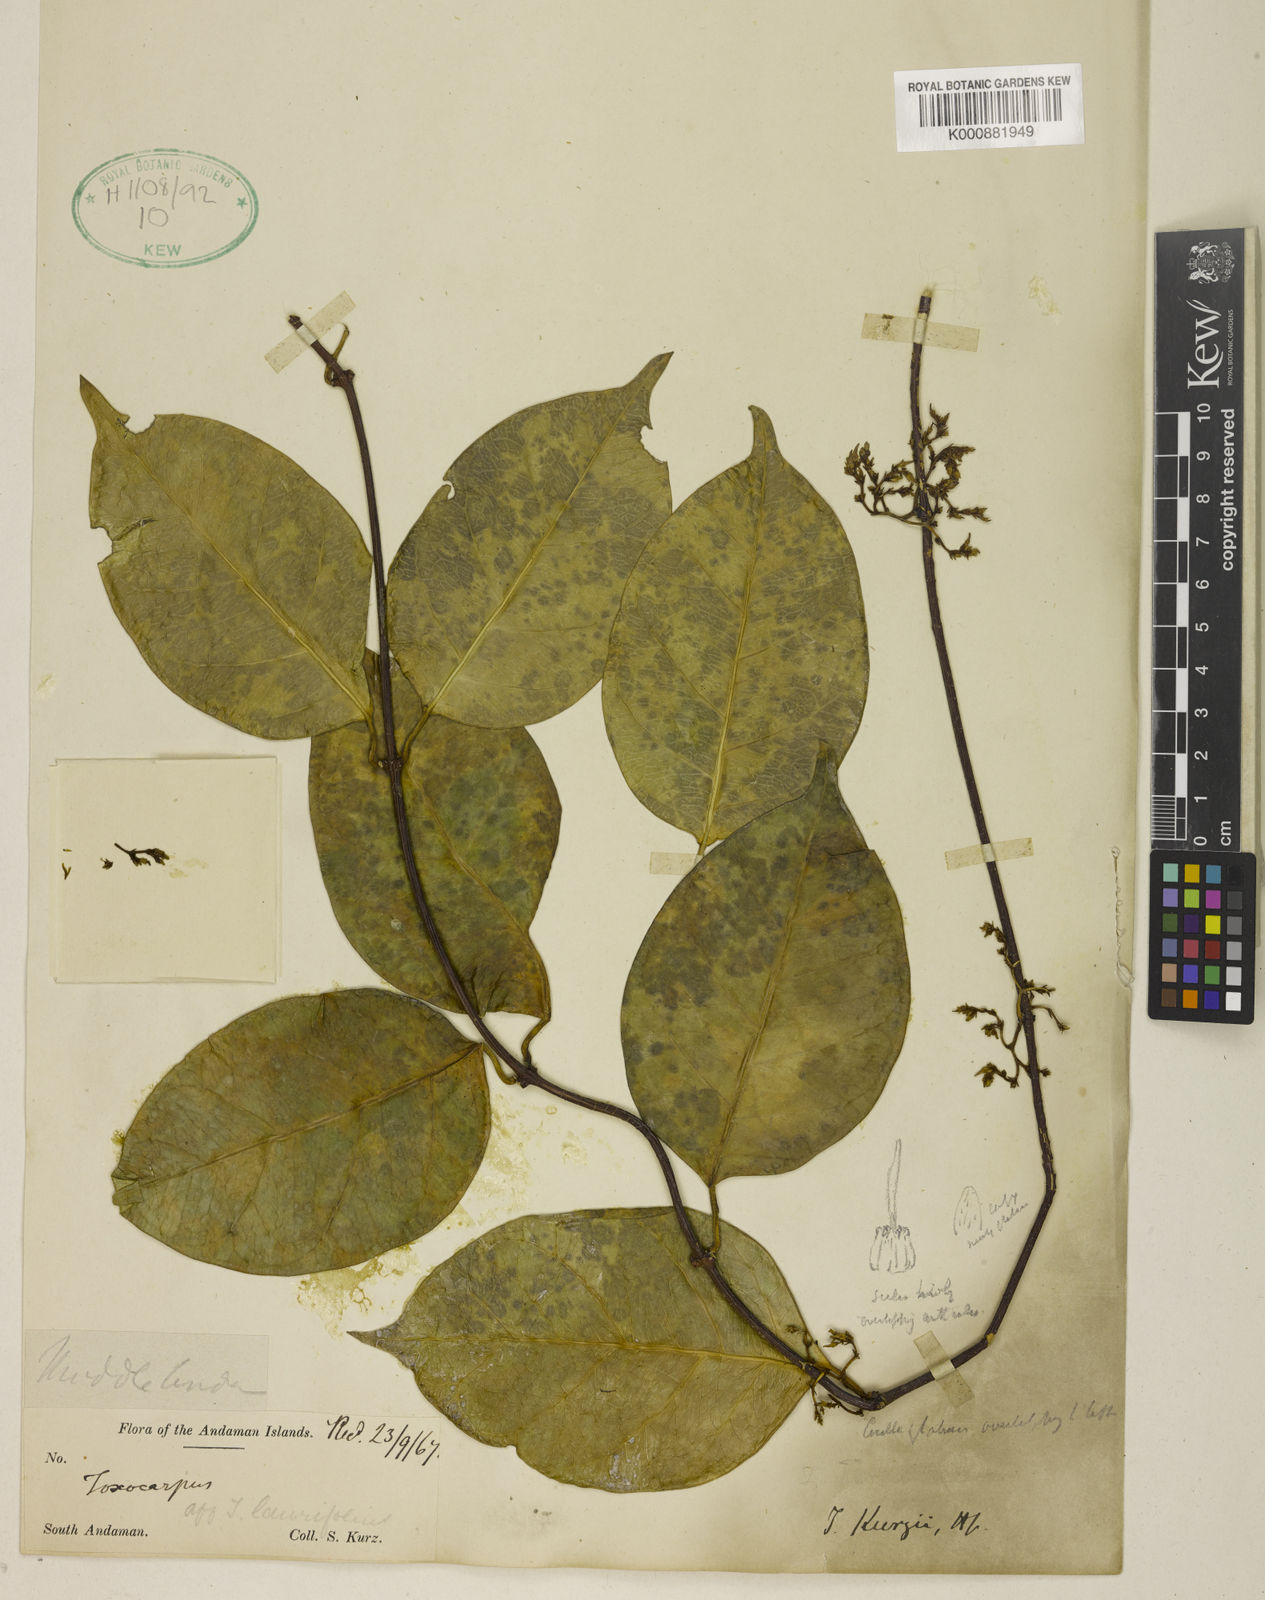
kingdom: Plantae
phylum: Tracheophyta
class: Magnoliopsida
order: Gentianales
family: Apocynaceae
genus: Toxocarpus
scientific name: Toxocarpus kurzii
